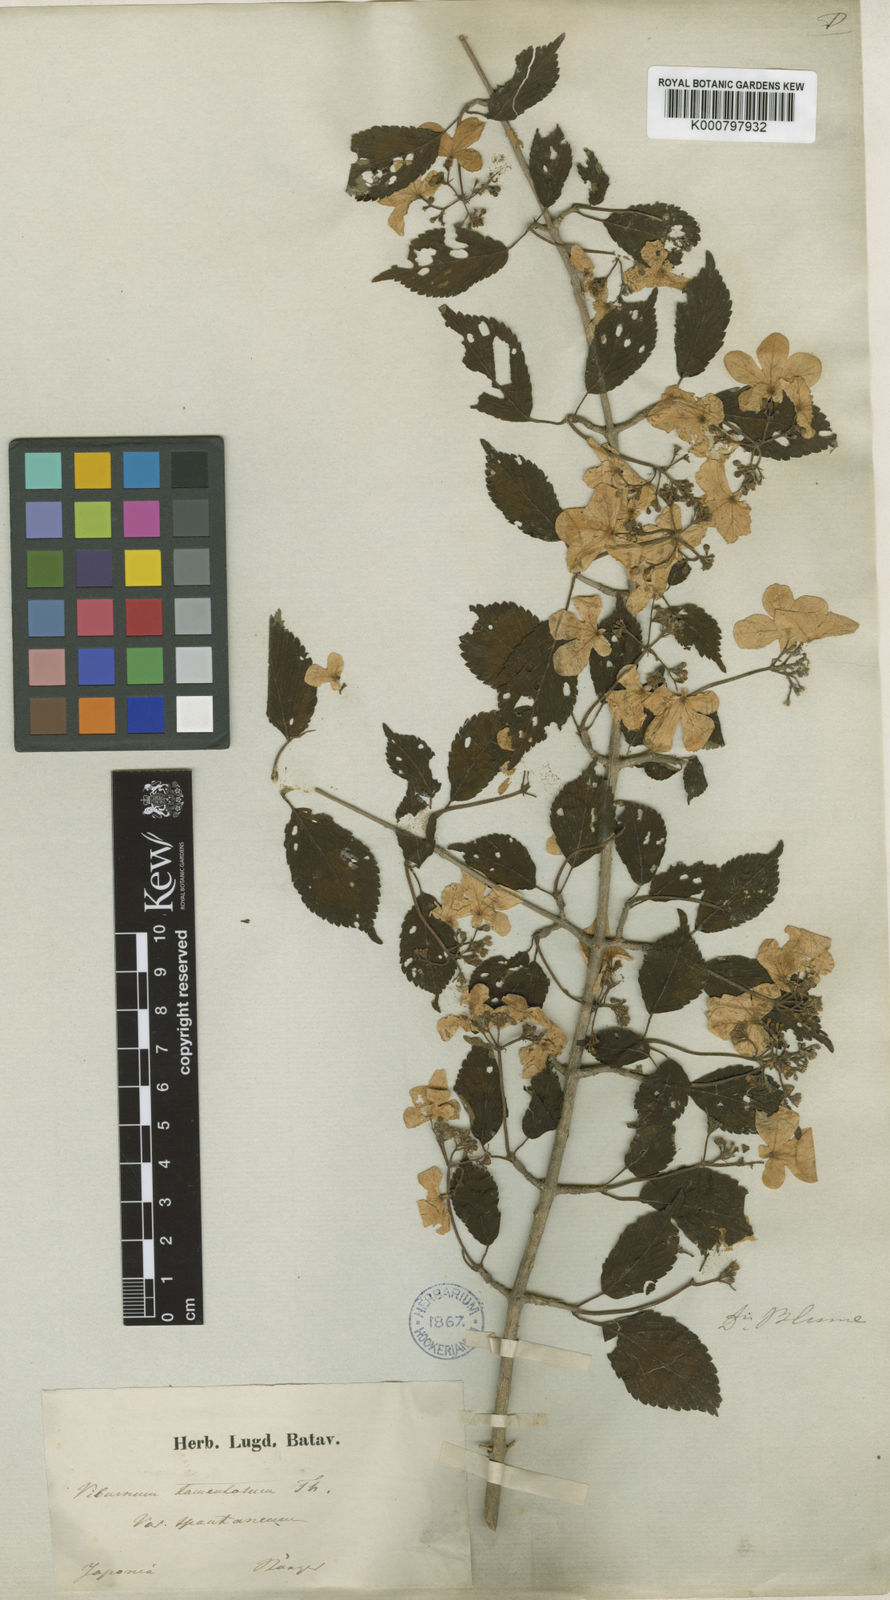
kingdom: Plantae
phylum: Tracheophyta
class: Magnoliopsida
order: Dipsacales
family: Viburnaceae
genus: Viburnum
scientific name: Viburnum
